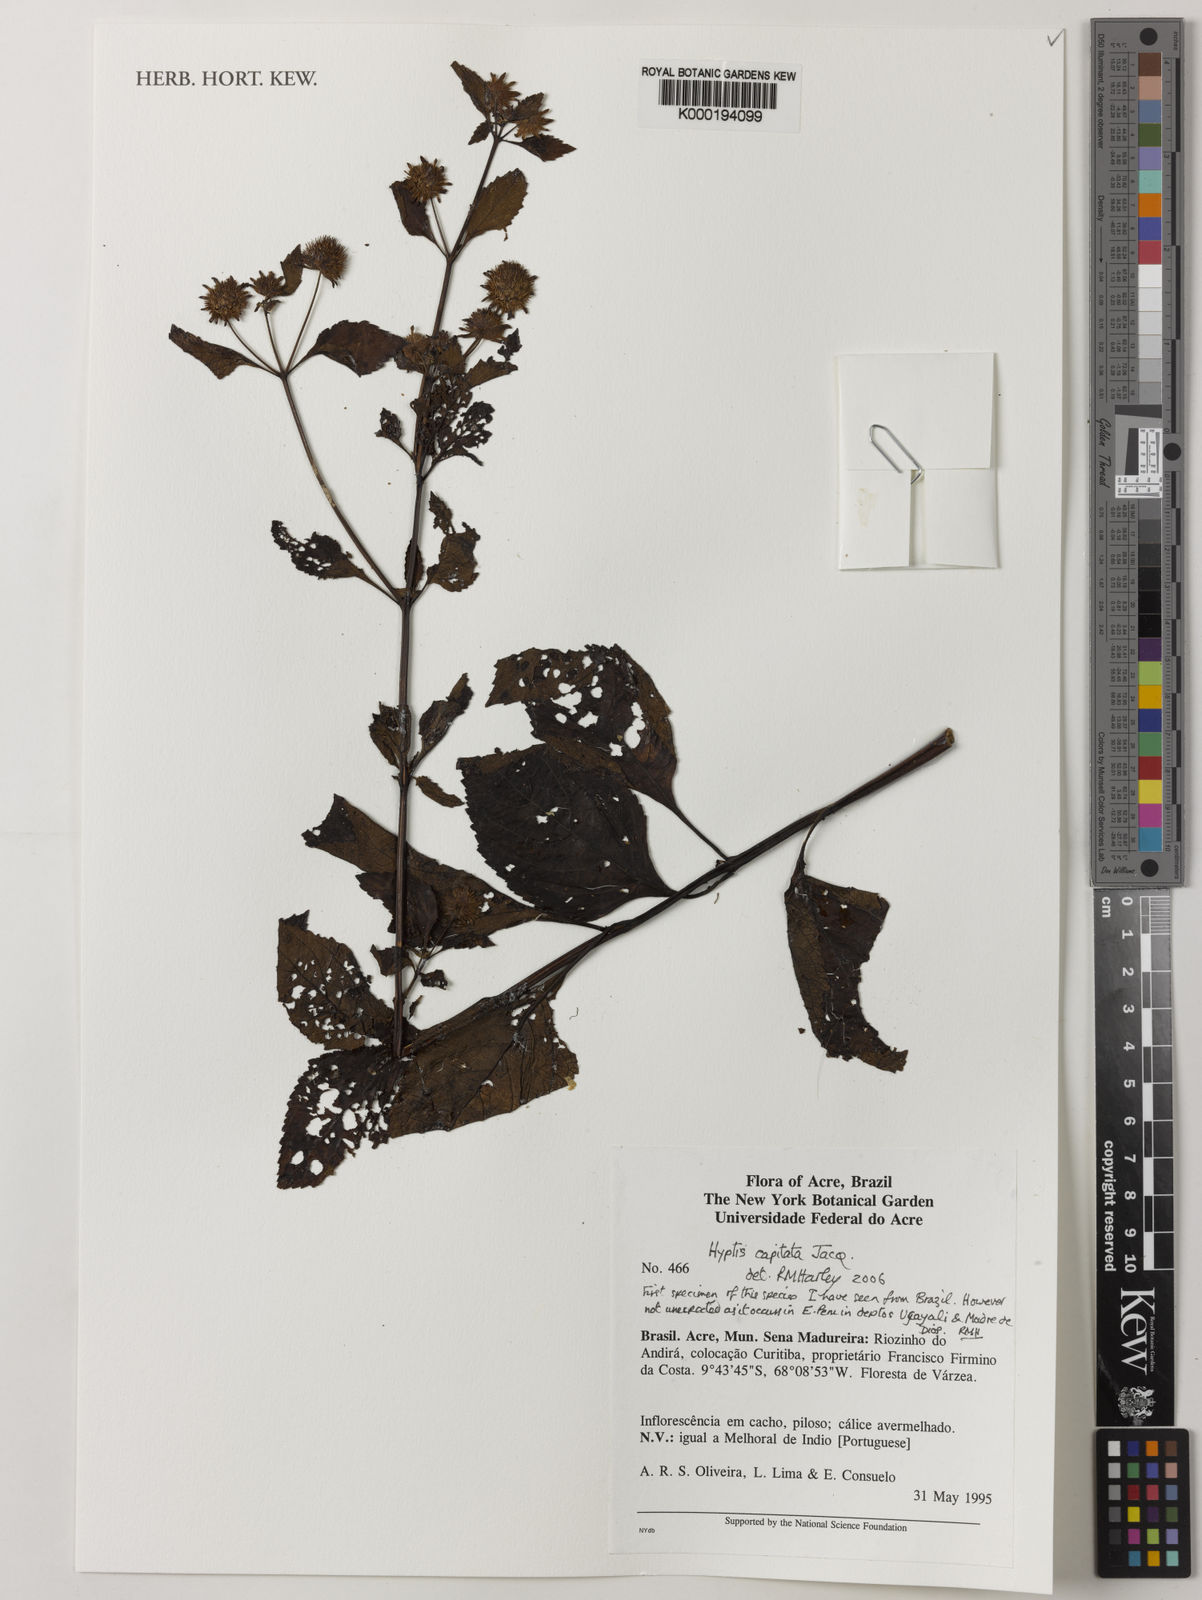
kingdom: Plantae
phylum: Tracheophyta
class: Magnoliopsida
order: Lamiales
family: Lamiaceae
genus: Hyptis
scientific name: Hyptis capitata
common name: False ironwort
